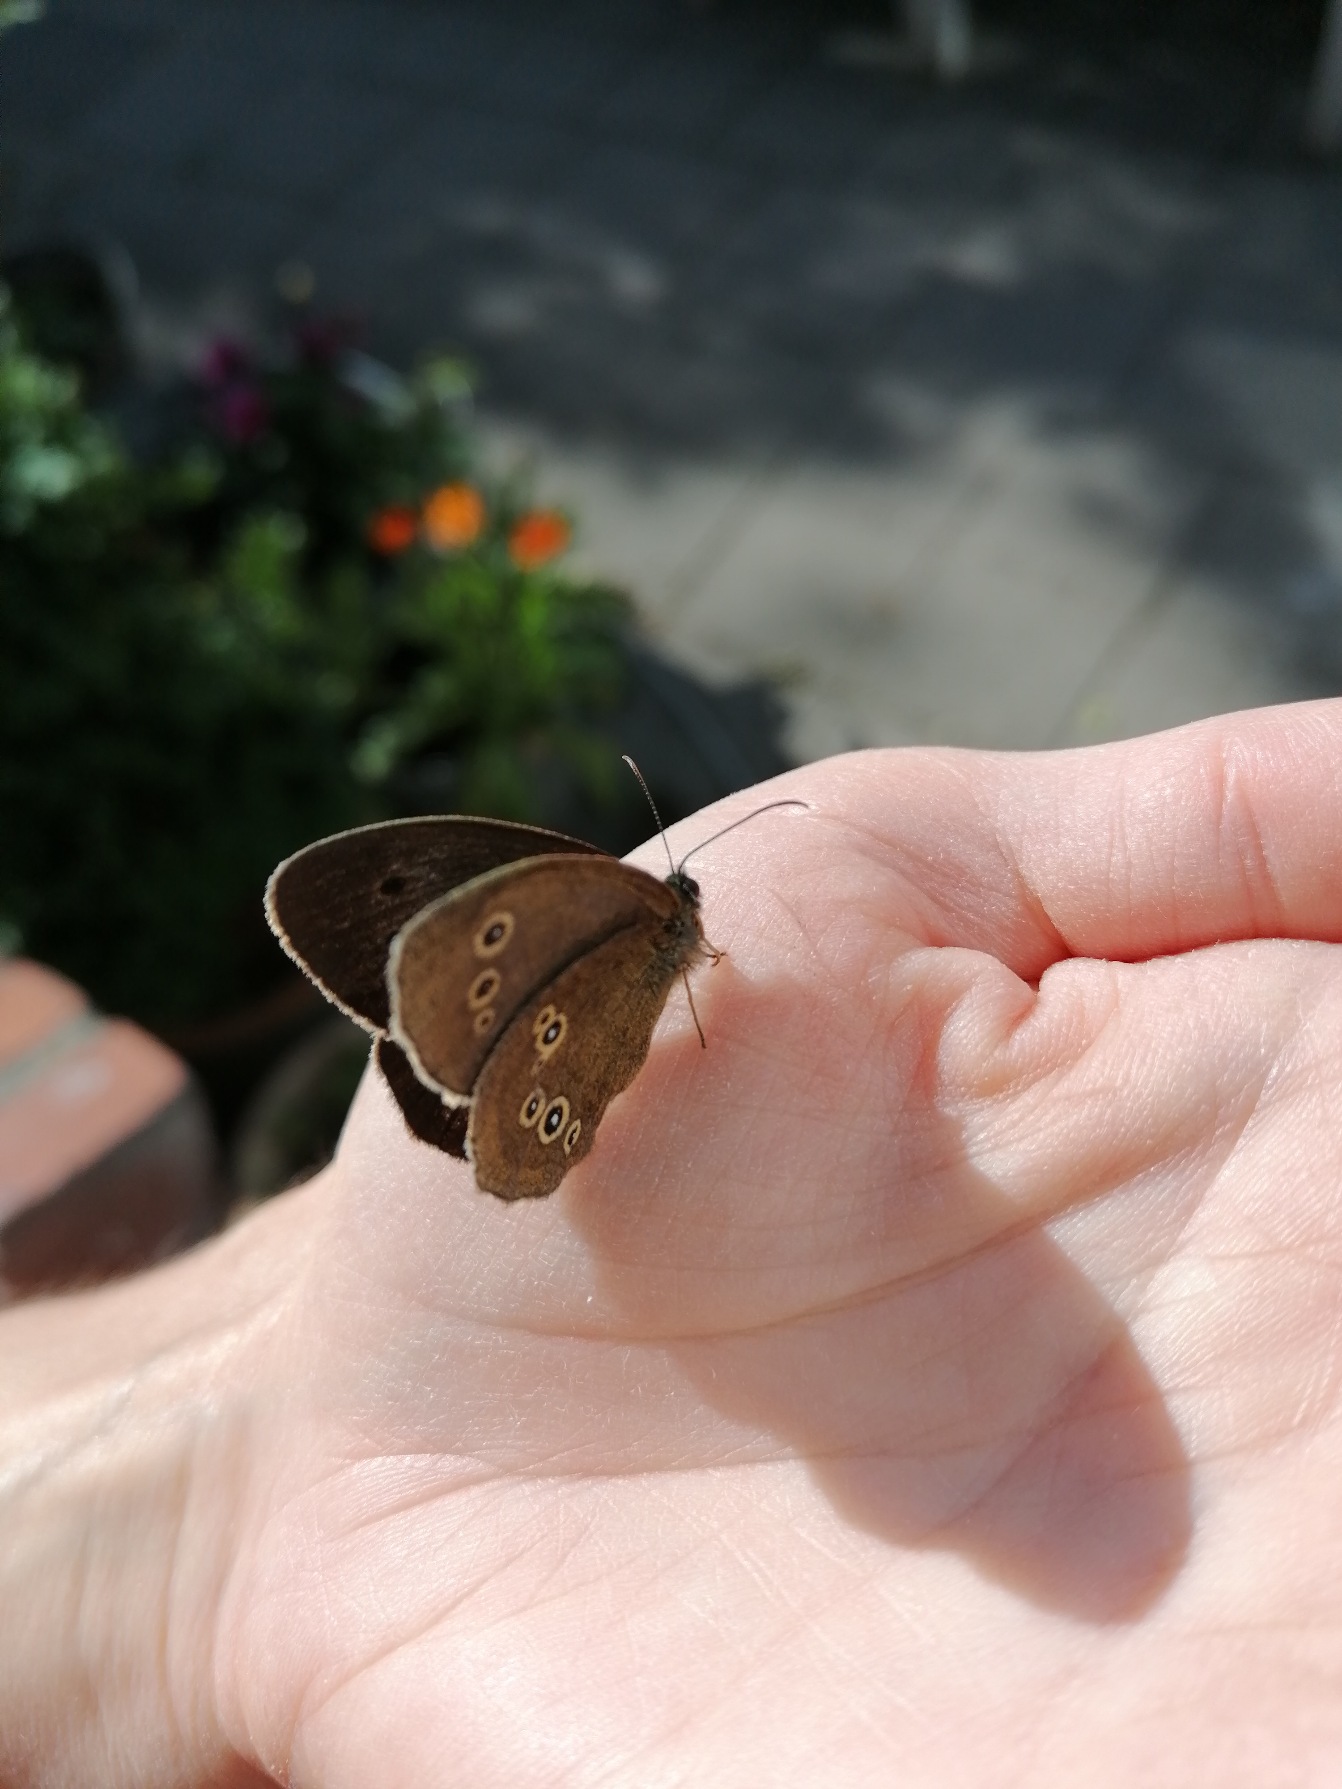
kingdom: Animalia
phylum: Arthropoda
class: Insecta
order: Lepidoptera
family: Nymphalidae
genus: Aphantopus
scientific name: Aphantopus hyperantus
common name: Engrandøje
